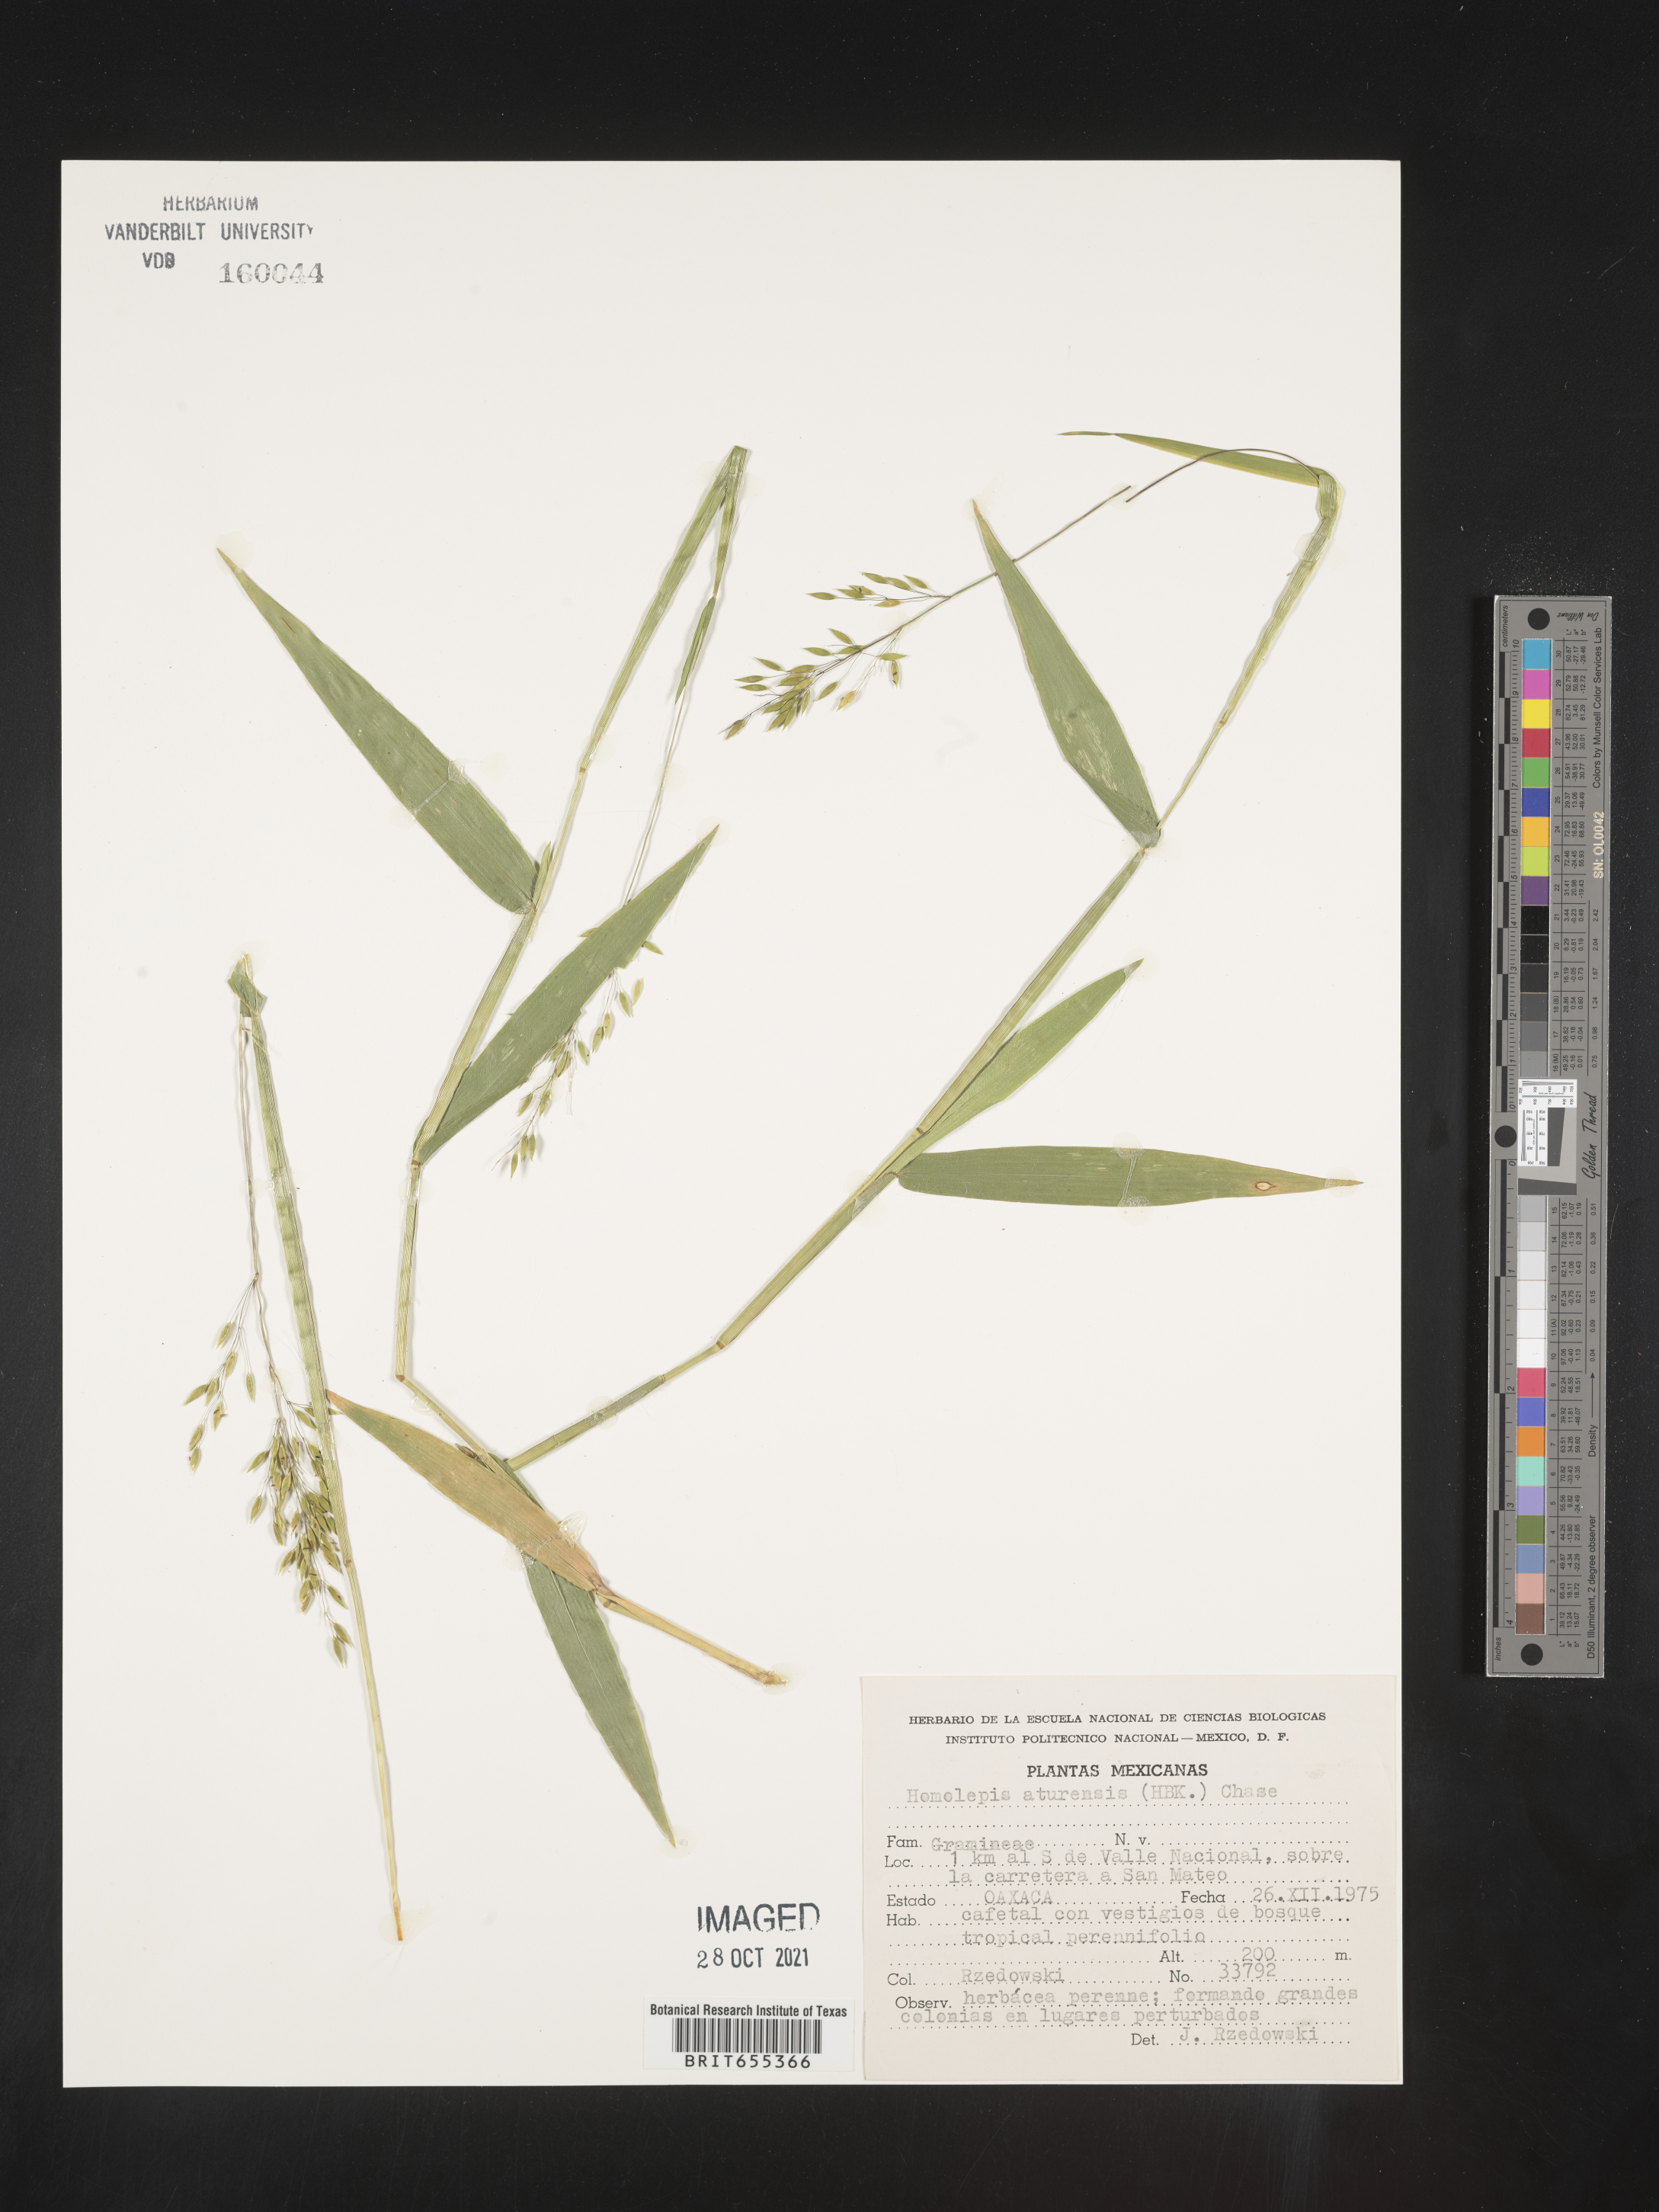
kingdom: Plantae
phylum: Tracheophyta
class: Liliopsida
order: Poales
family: Poaceae
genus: Homolepis
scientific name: Homolepis
